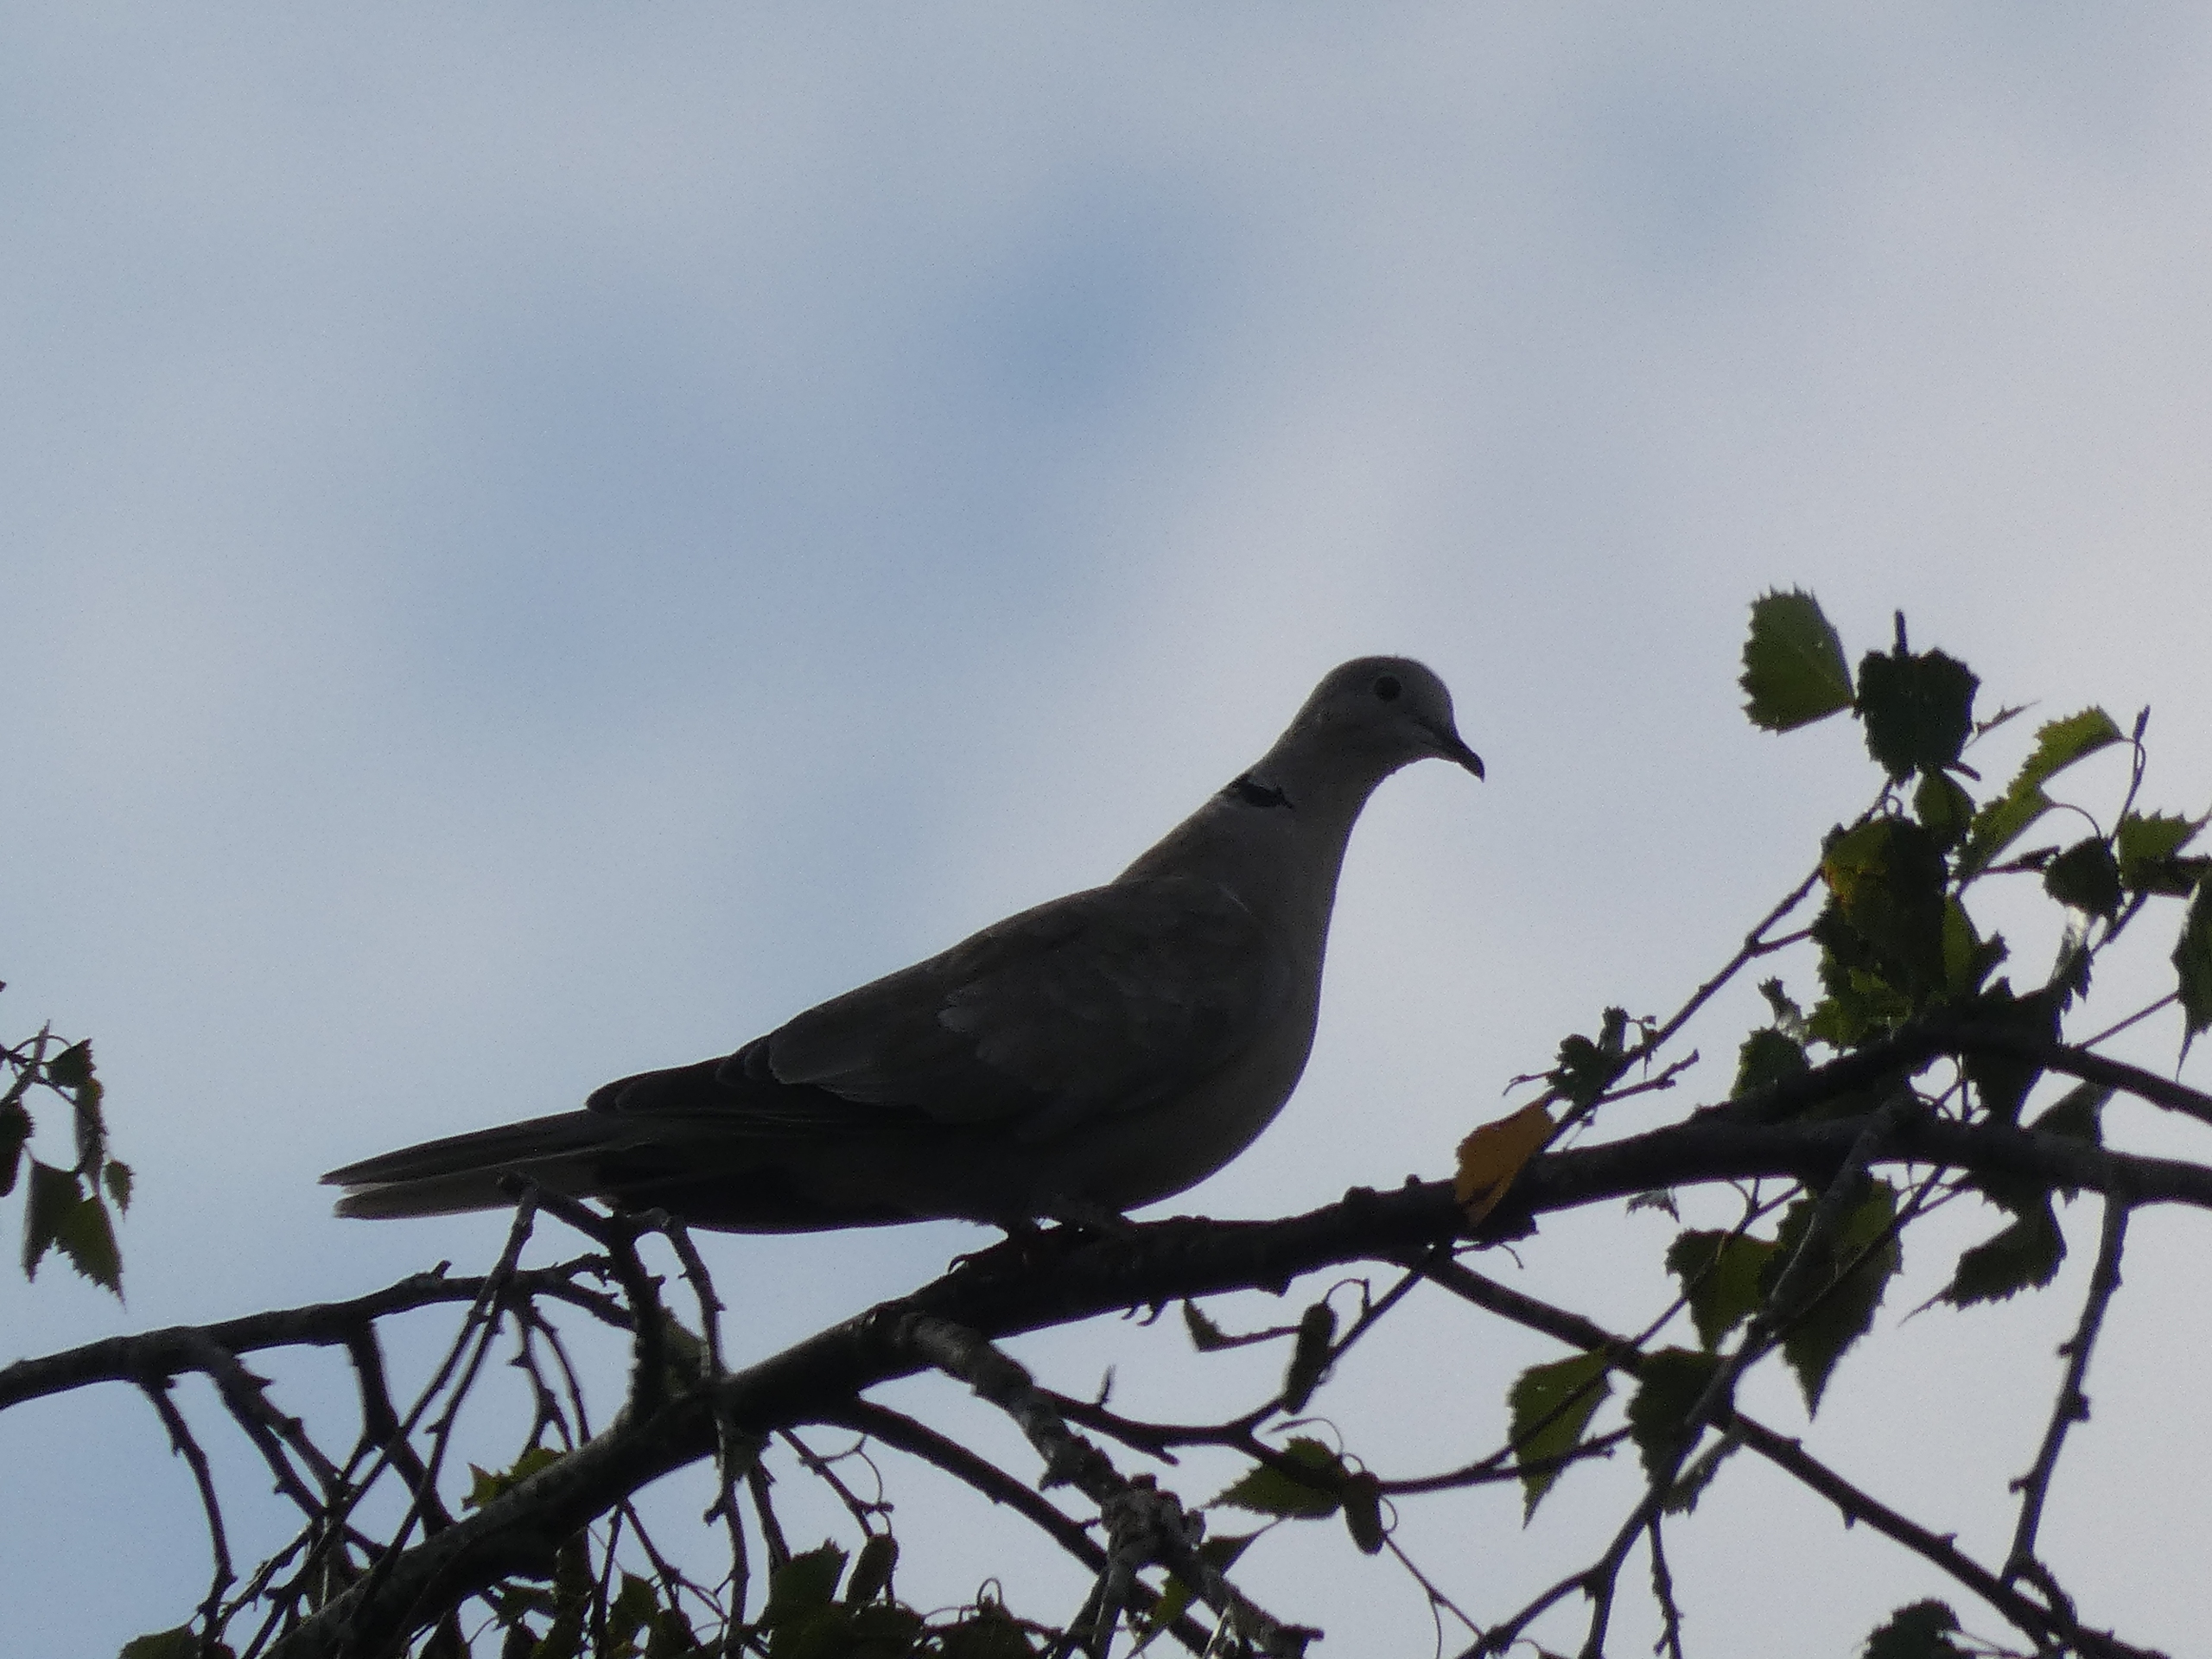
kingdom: Animalia
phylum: Chordata
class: Aves
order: Columbiformes
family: Columbidae
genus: Streptopelia
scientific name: Streptopelia decaocto
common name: Tyrkerdue
